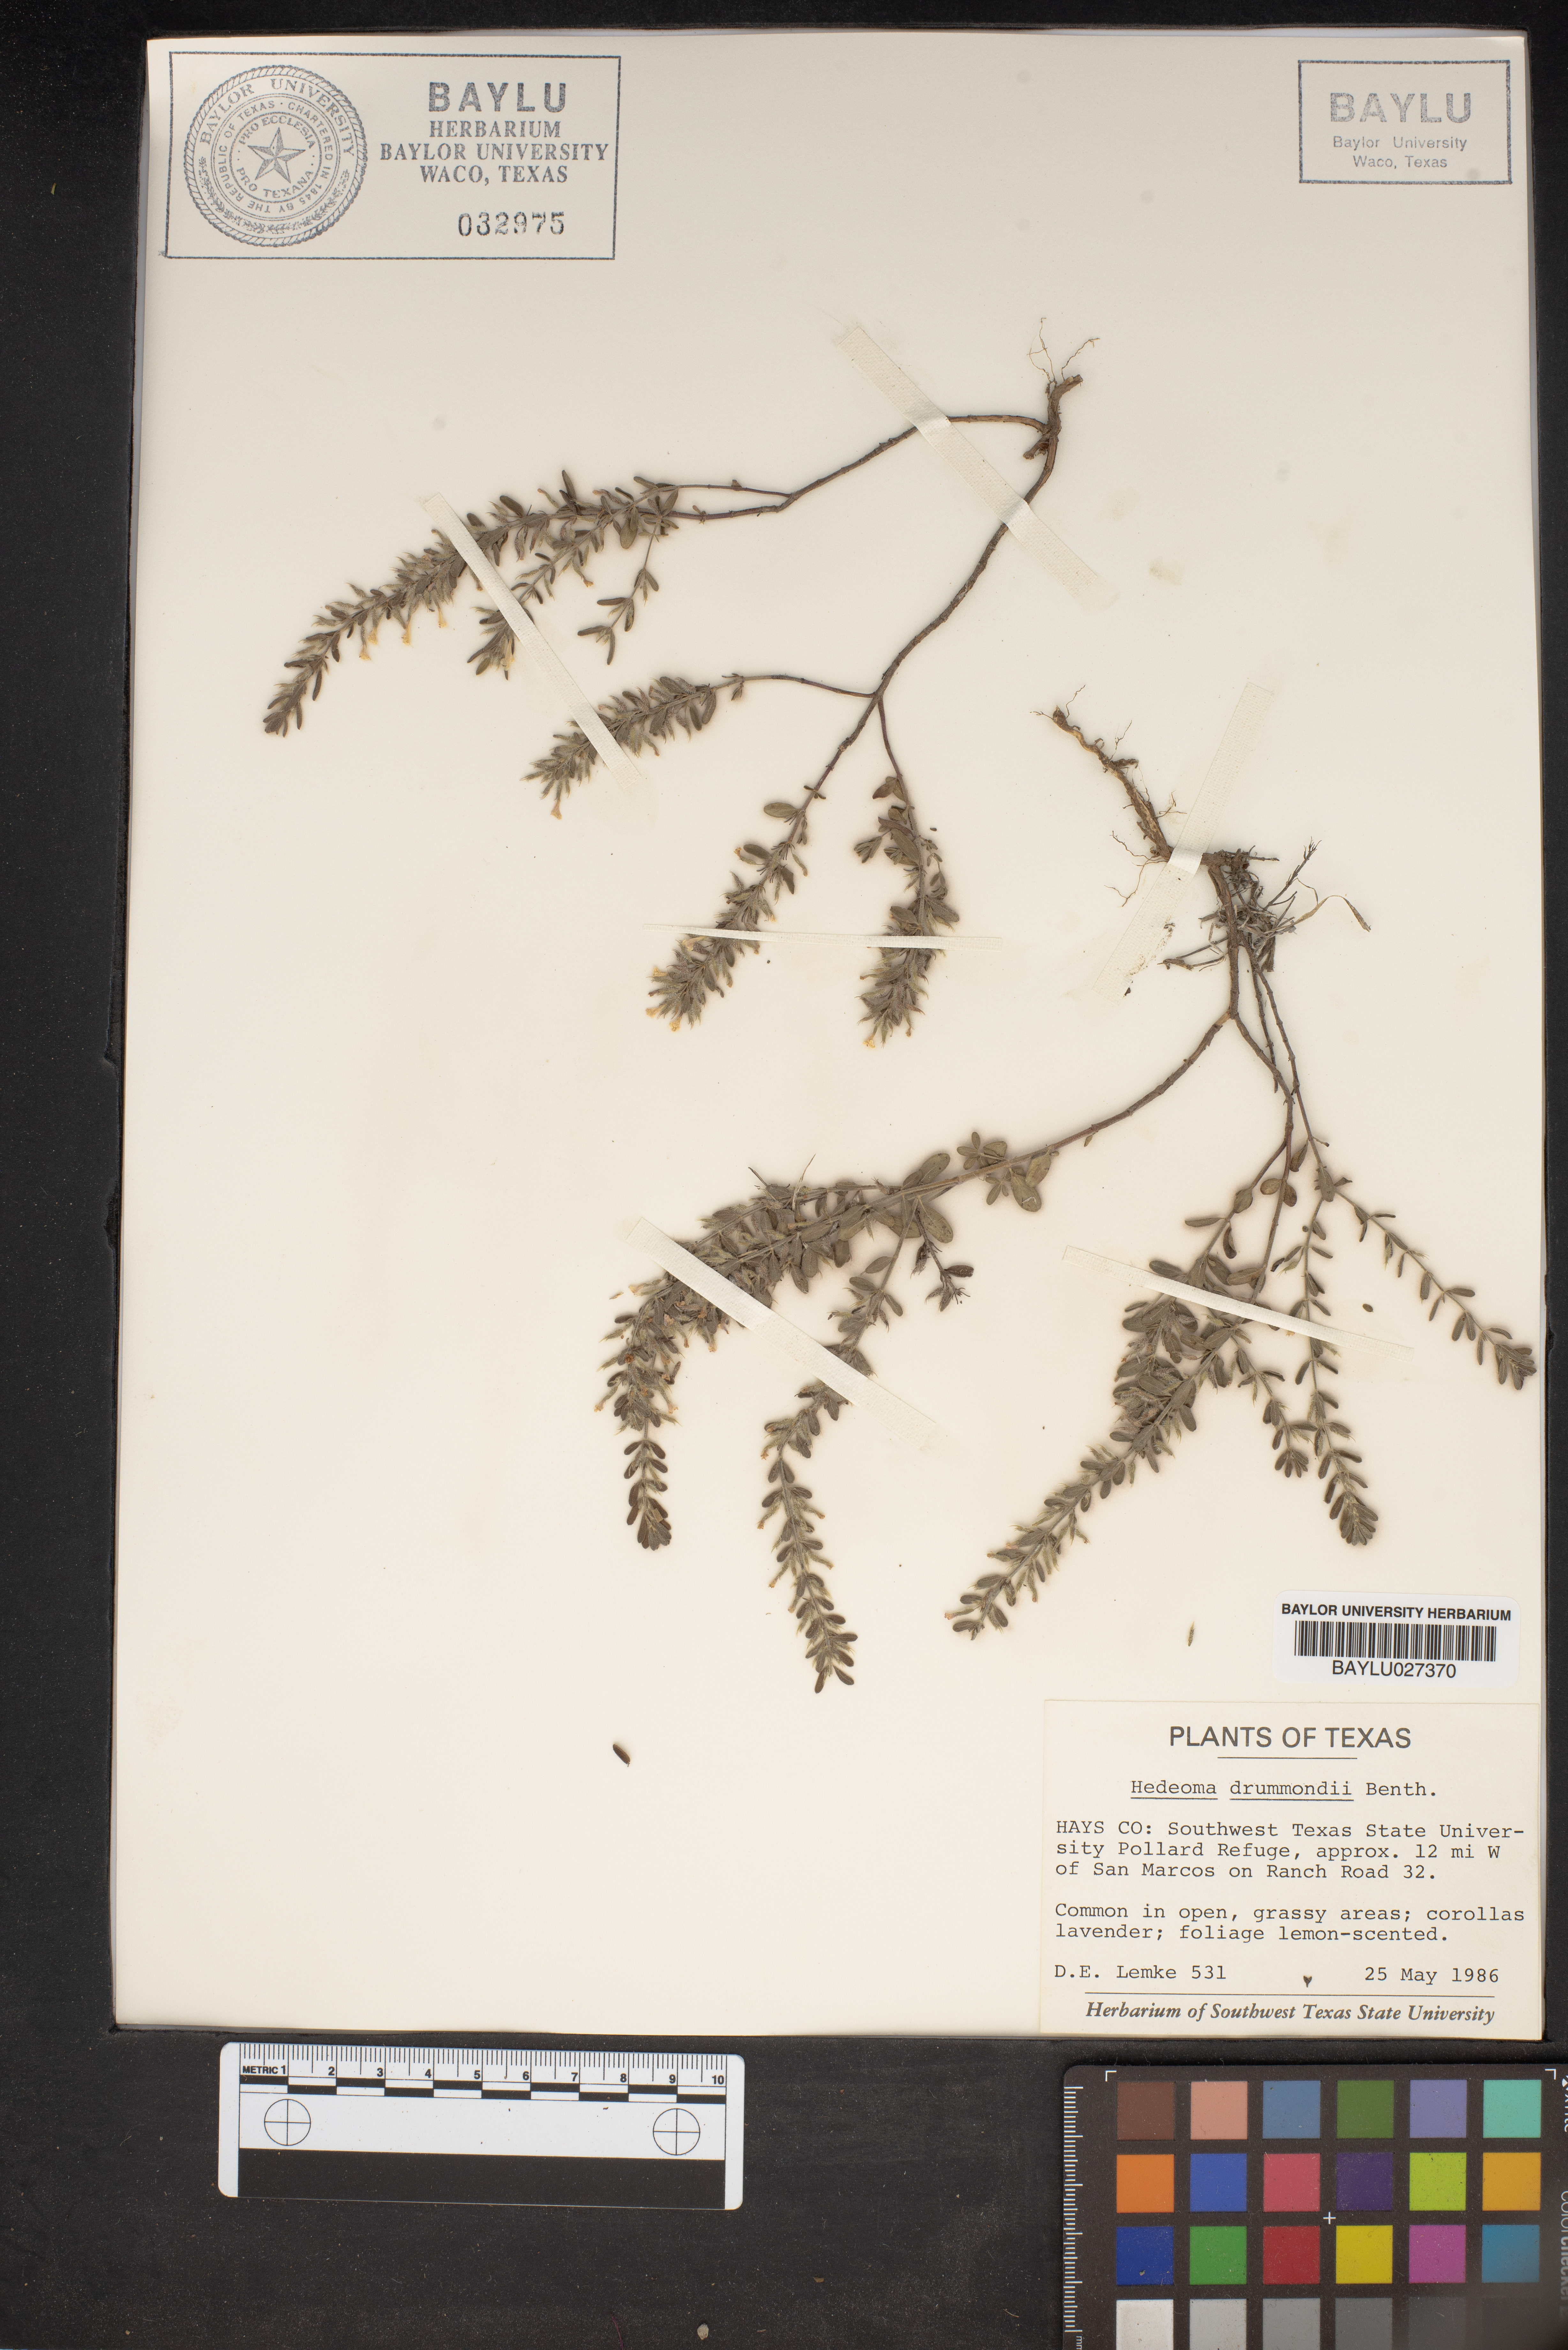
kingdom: Plantae
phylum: Tracheophyta
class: Magnoliopsida
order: Lamiales
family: Lamiaceae
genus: Hedeoma
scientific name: Hedeoma drummondii
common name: New mexico pennyroyal
